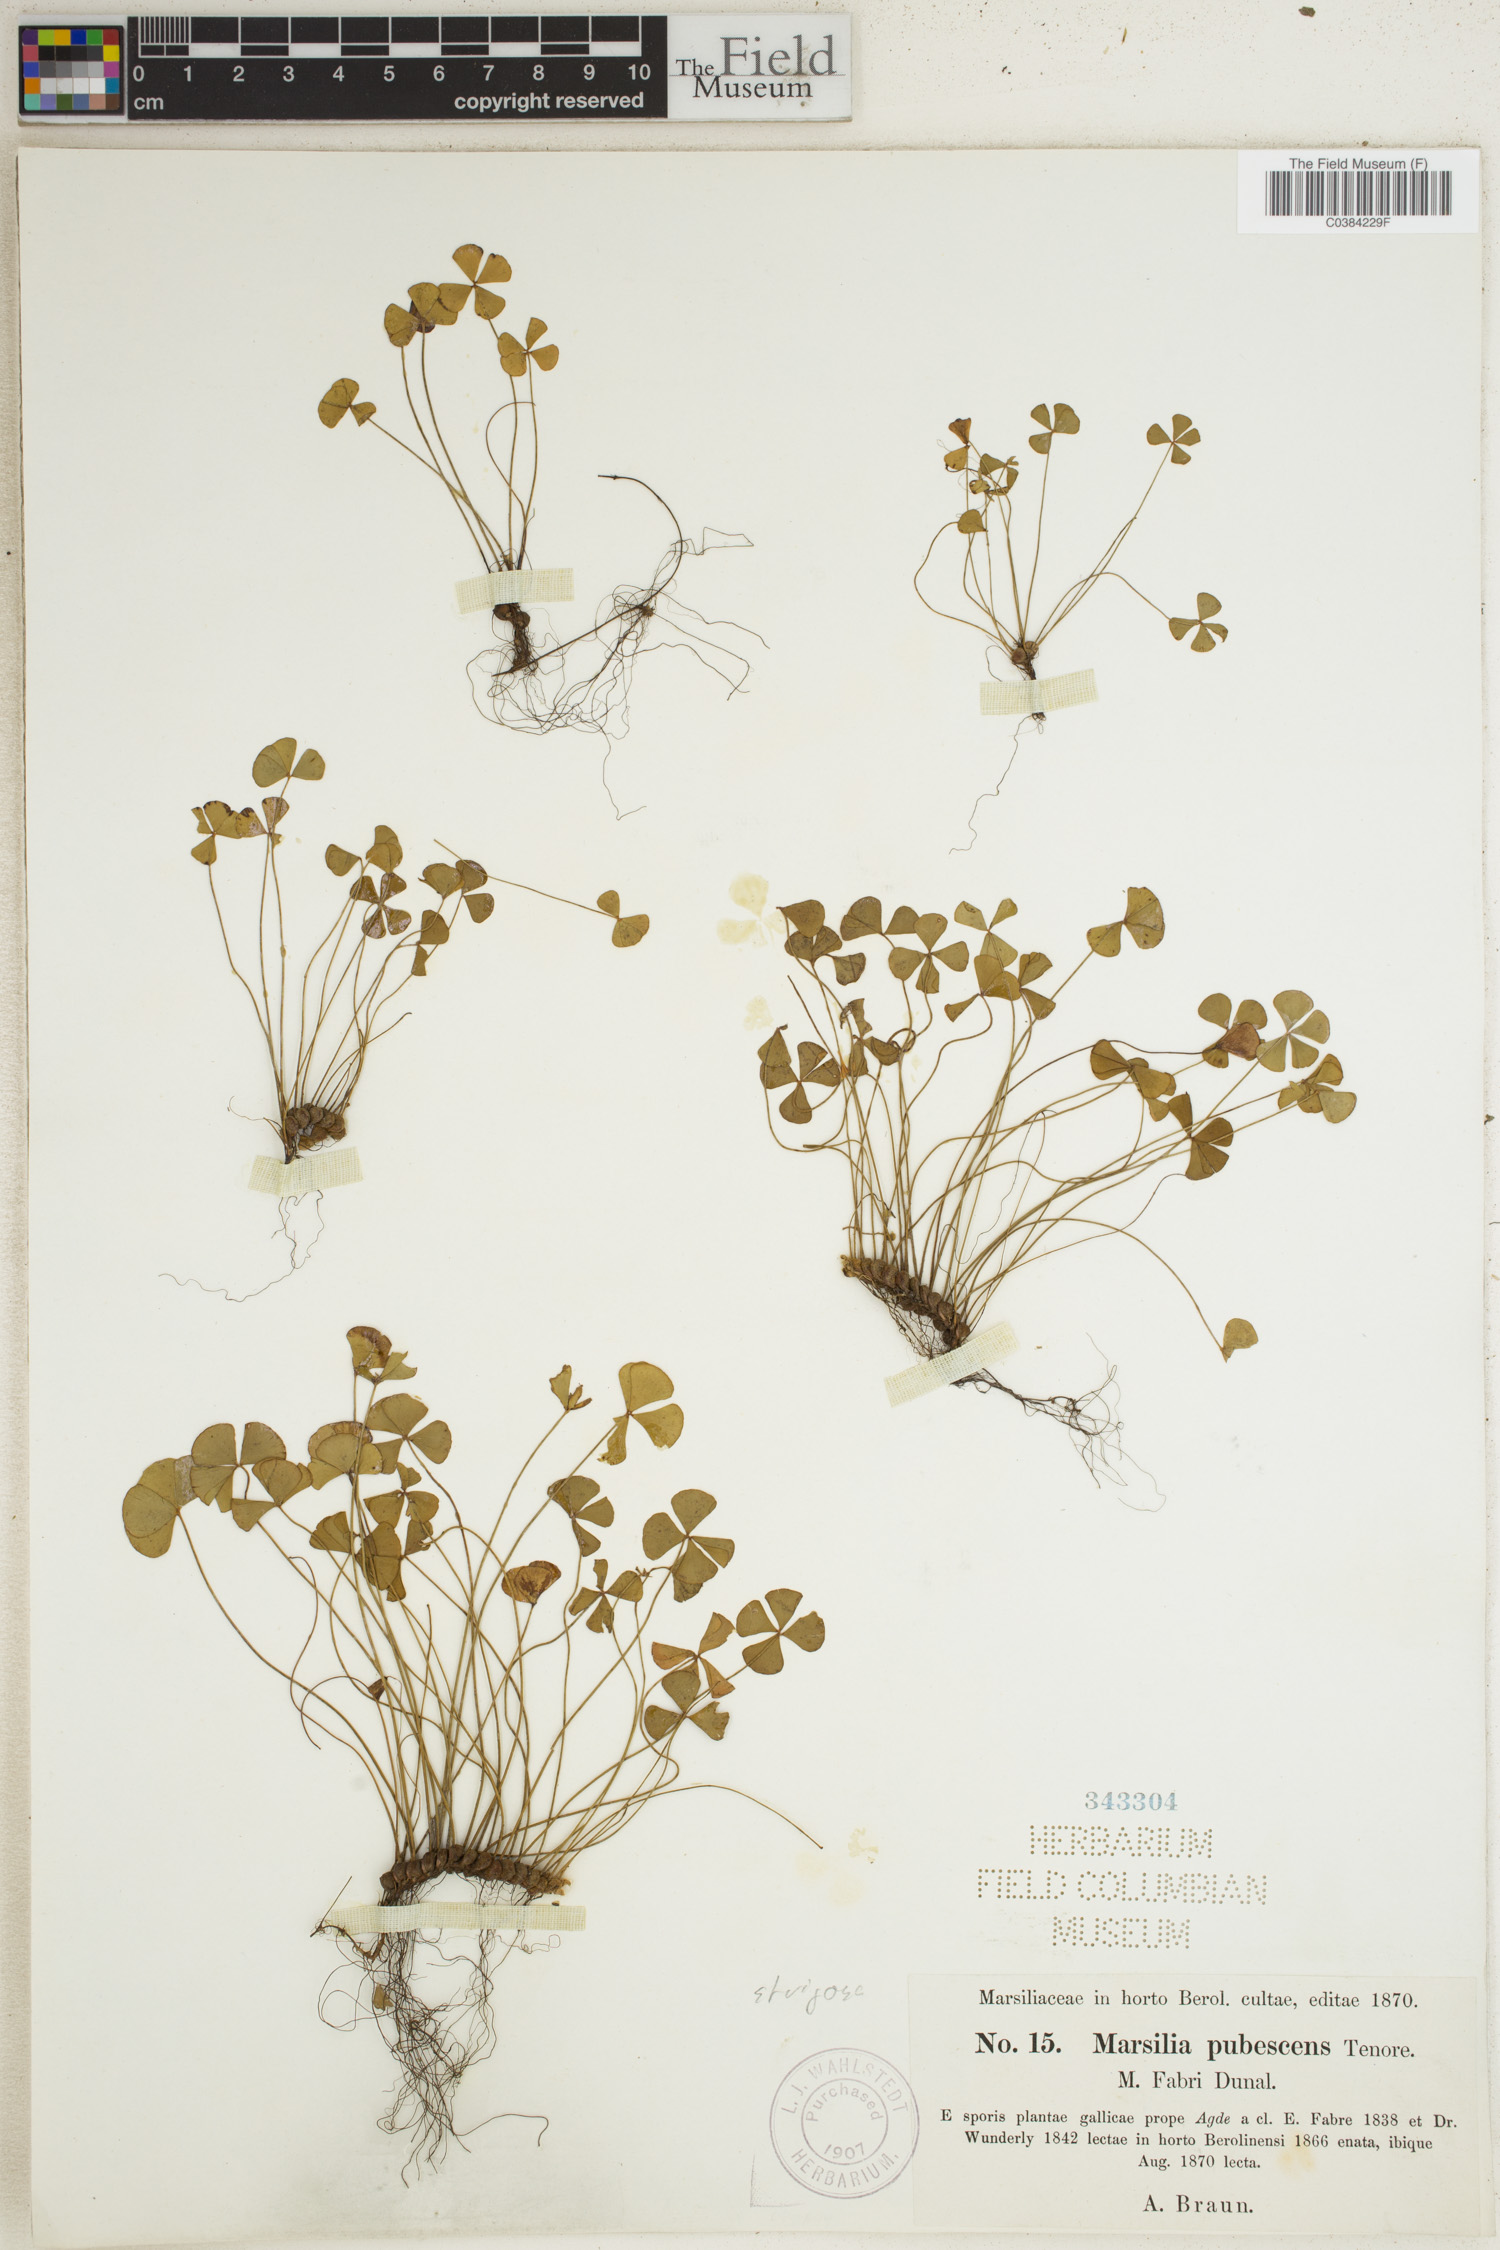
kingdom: Plantae
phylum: Tracheophyta
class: Polypodiopsida
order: Salviniales
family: Marsileaceae
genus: Marsilea
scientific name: Marsilea strigosa
